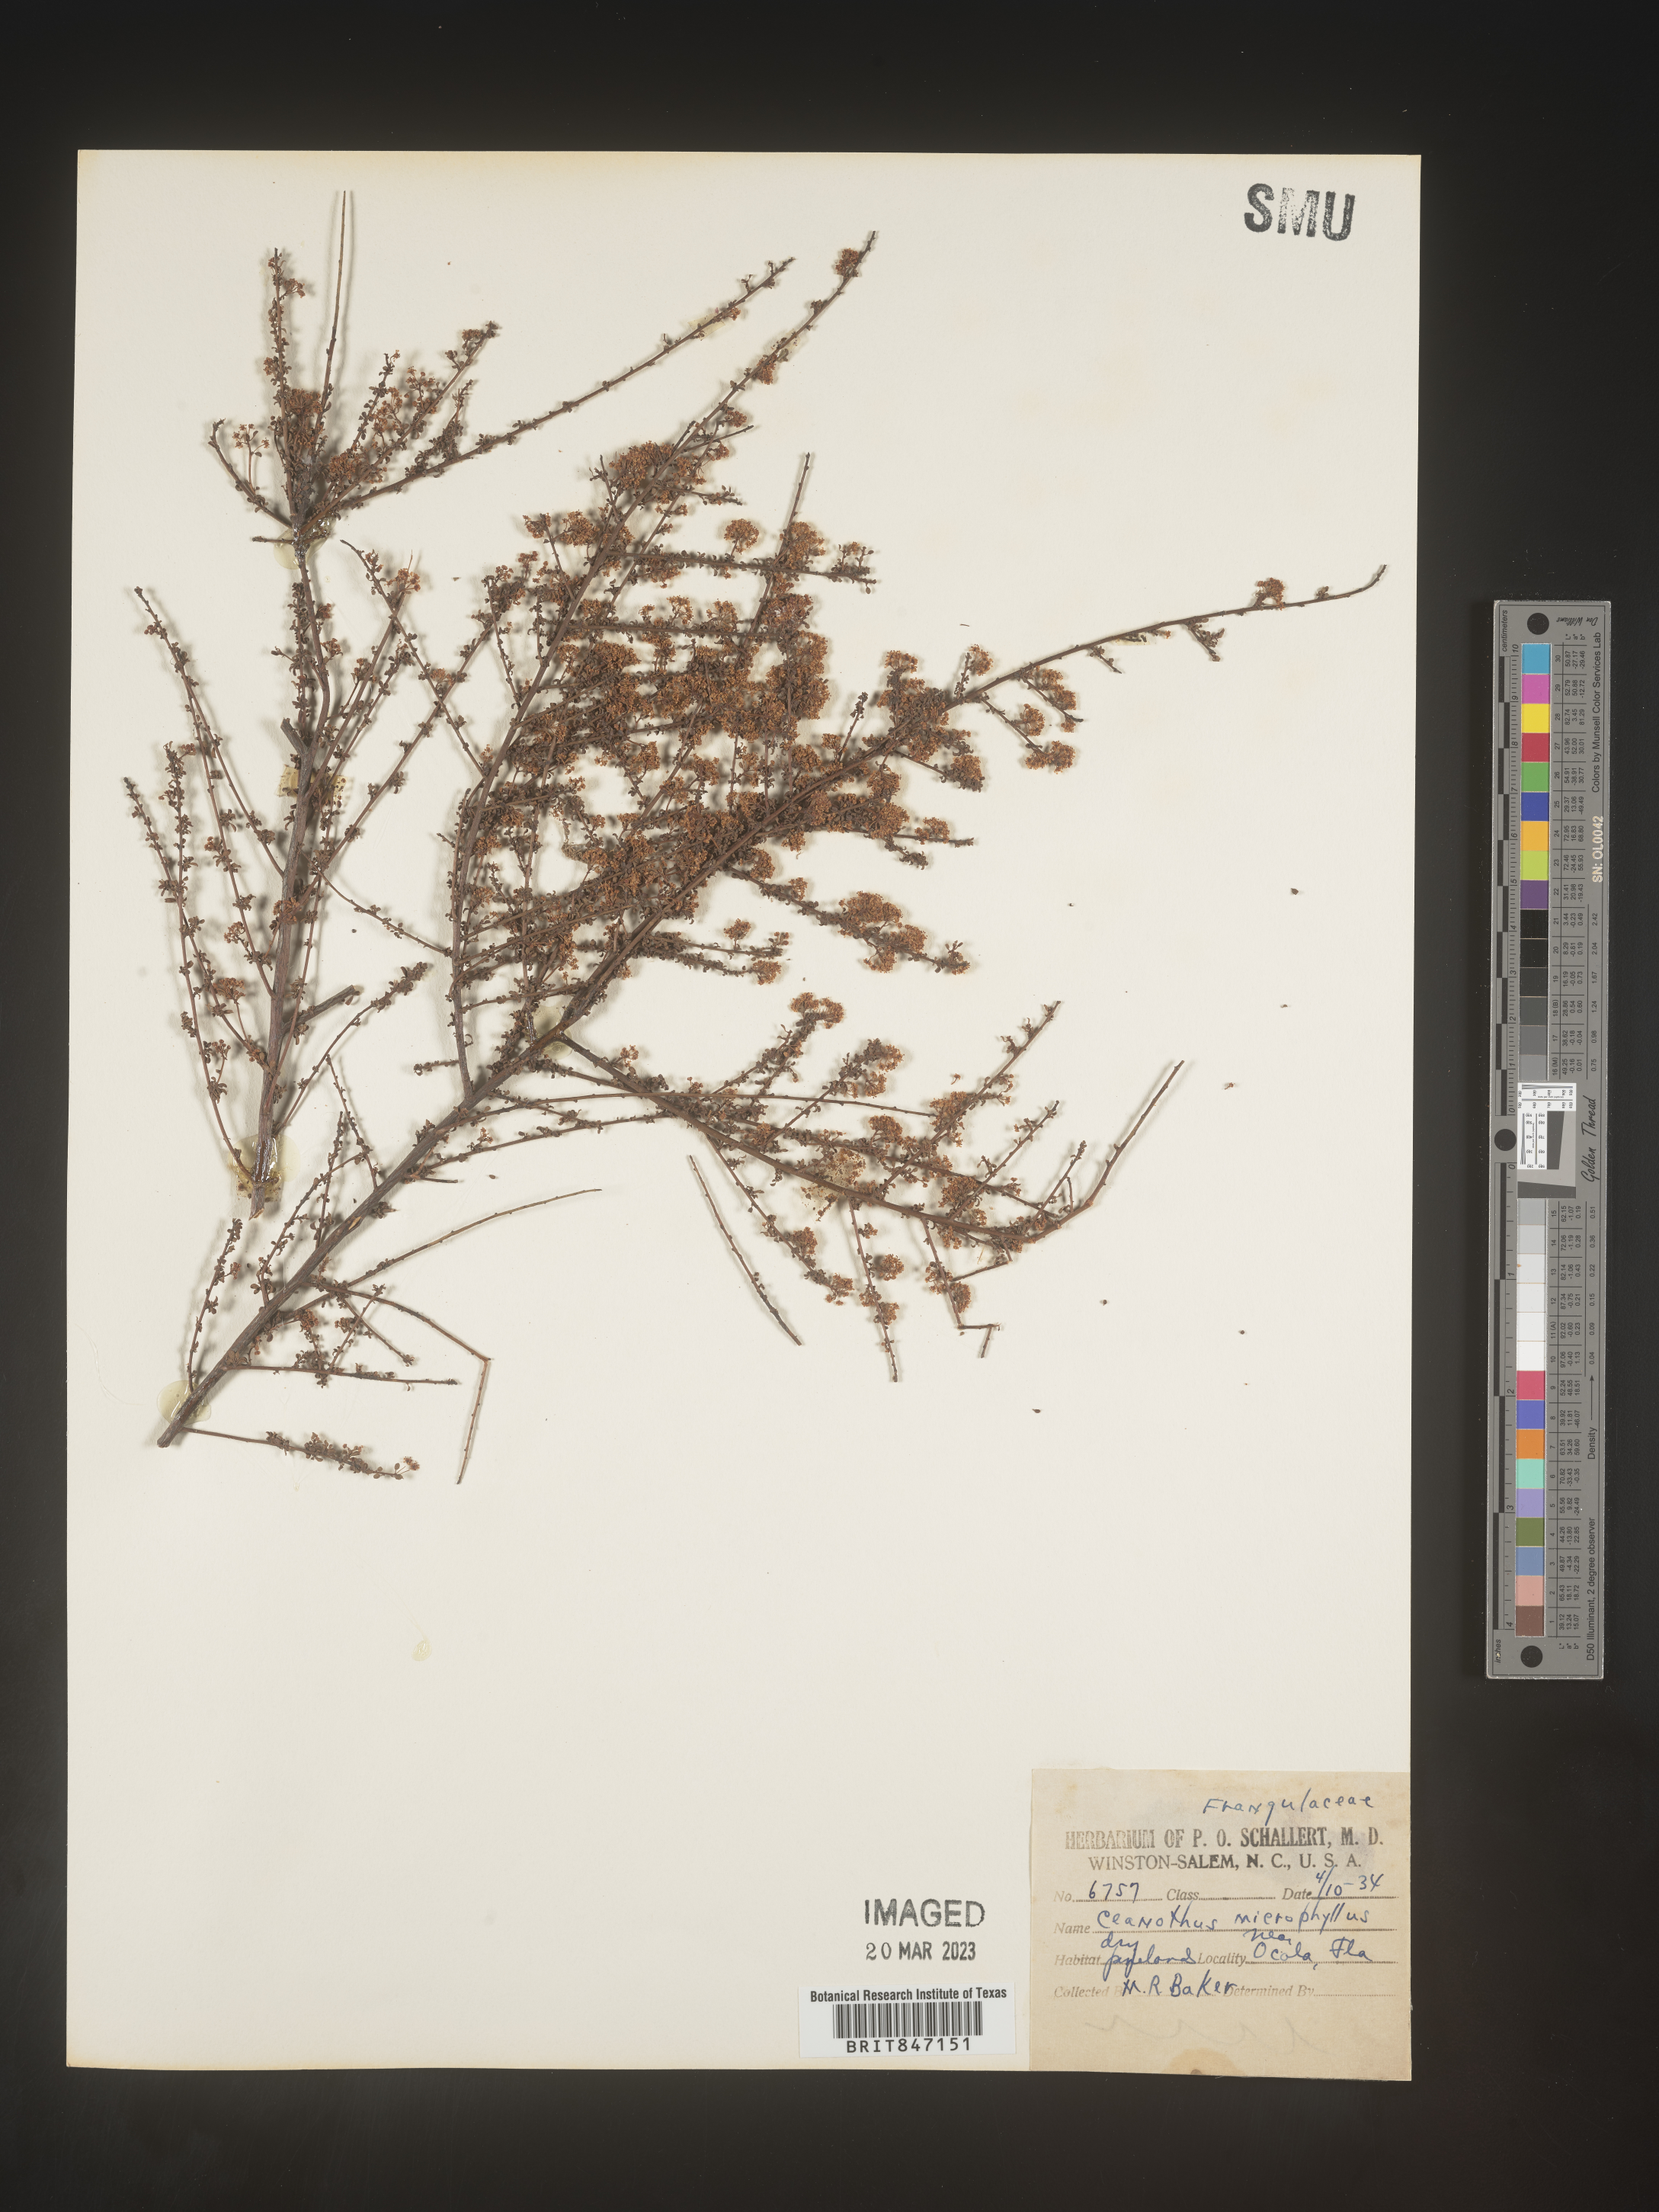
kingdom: Plantae
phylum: Tracheophyta
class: Magnoliopsida
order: Rosales
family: Rhamnaceae
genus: Ceanothus
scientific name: Ceanothus
